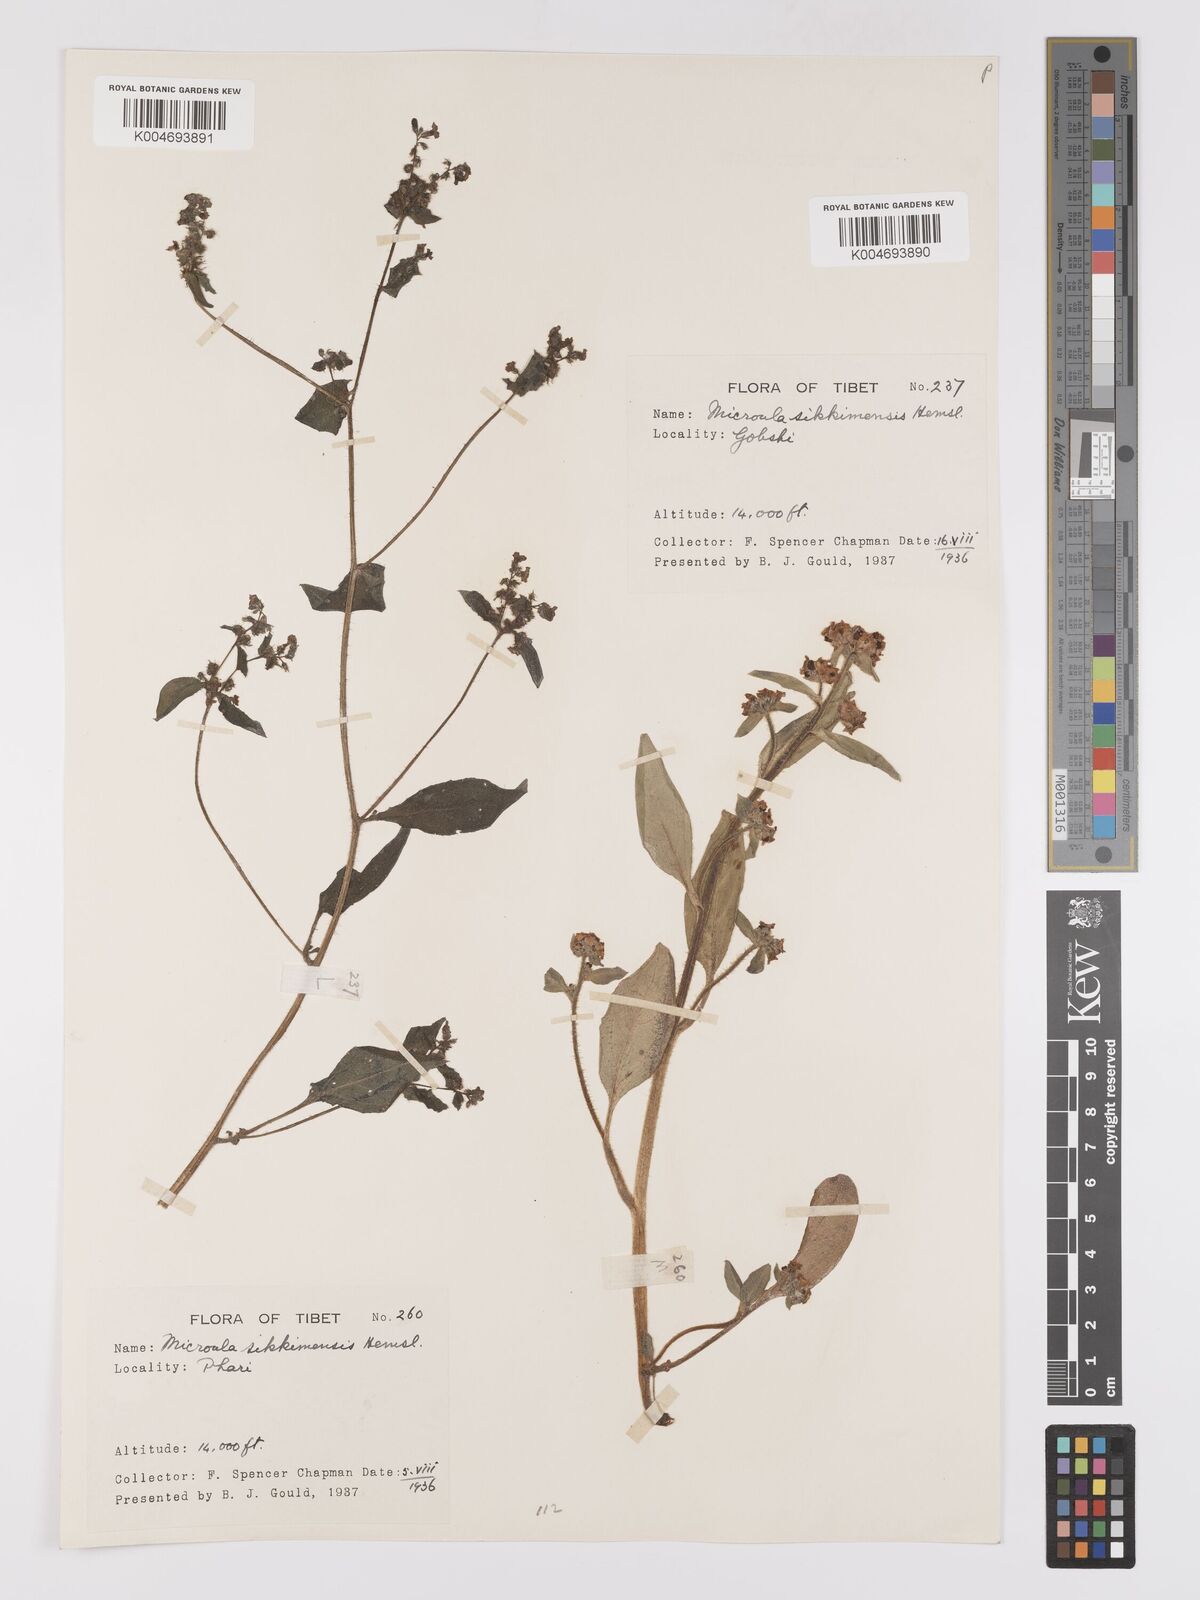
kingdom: Plantae
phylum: Tracheophyta
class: Magnoliopsida
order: Boraginales
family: Boraginaceae
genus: Microula
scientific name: Microula sikkimensis
